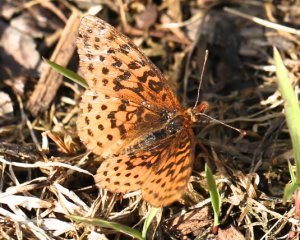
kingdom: Animalia
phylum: Arthropoda
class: Insecta
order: Lepidoptera
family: Nymphalidae
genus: Clossiana
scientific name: Clossiana toddi
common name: Meadow Fritillary
